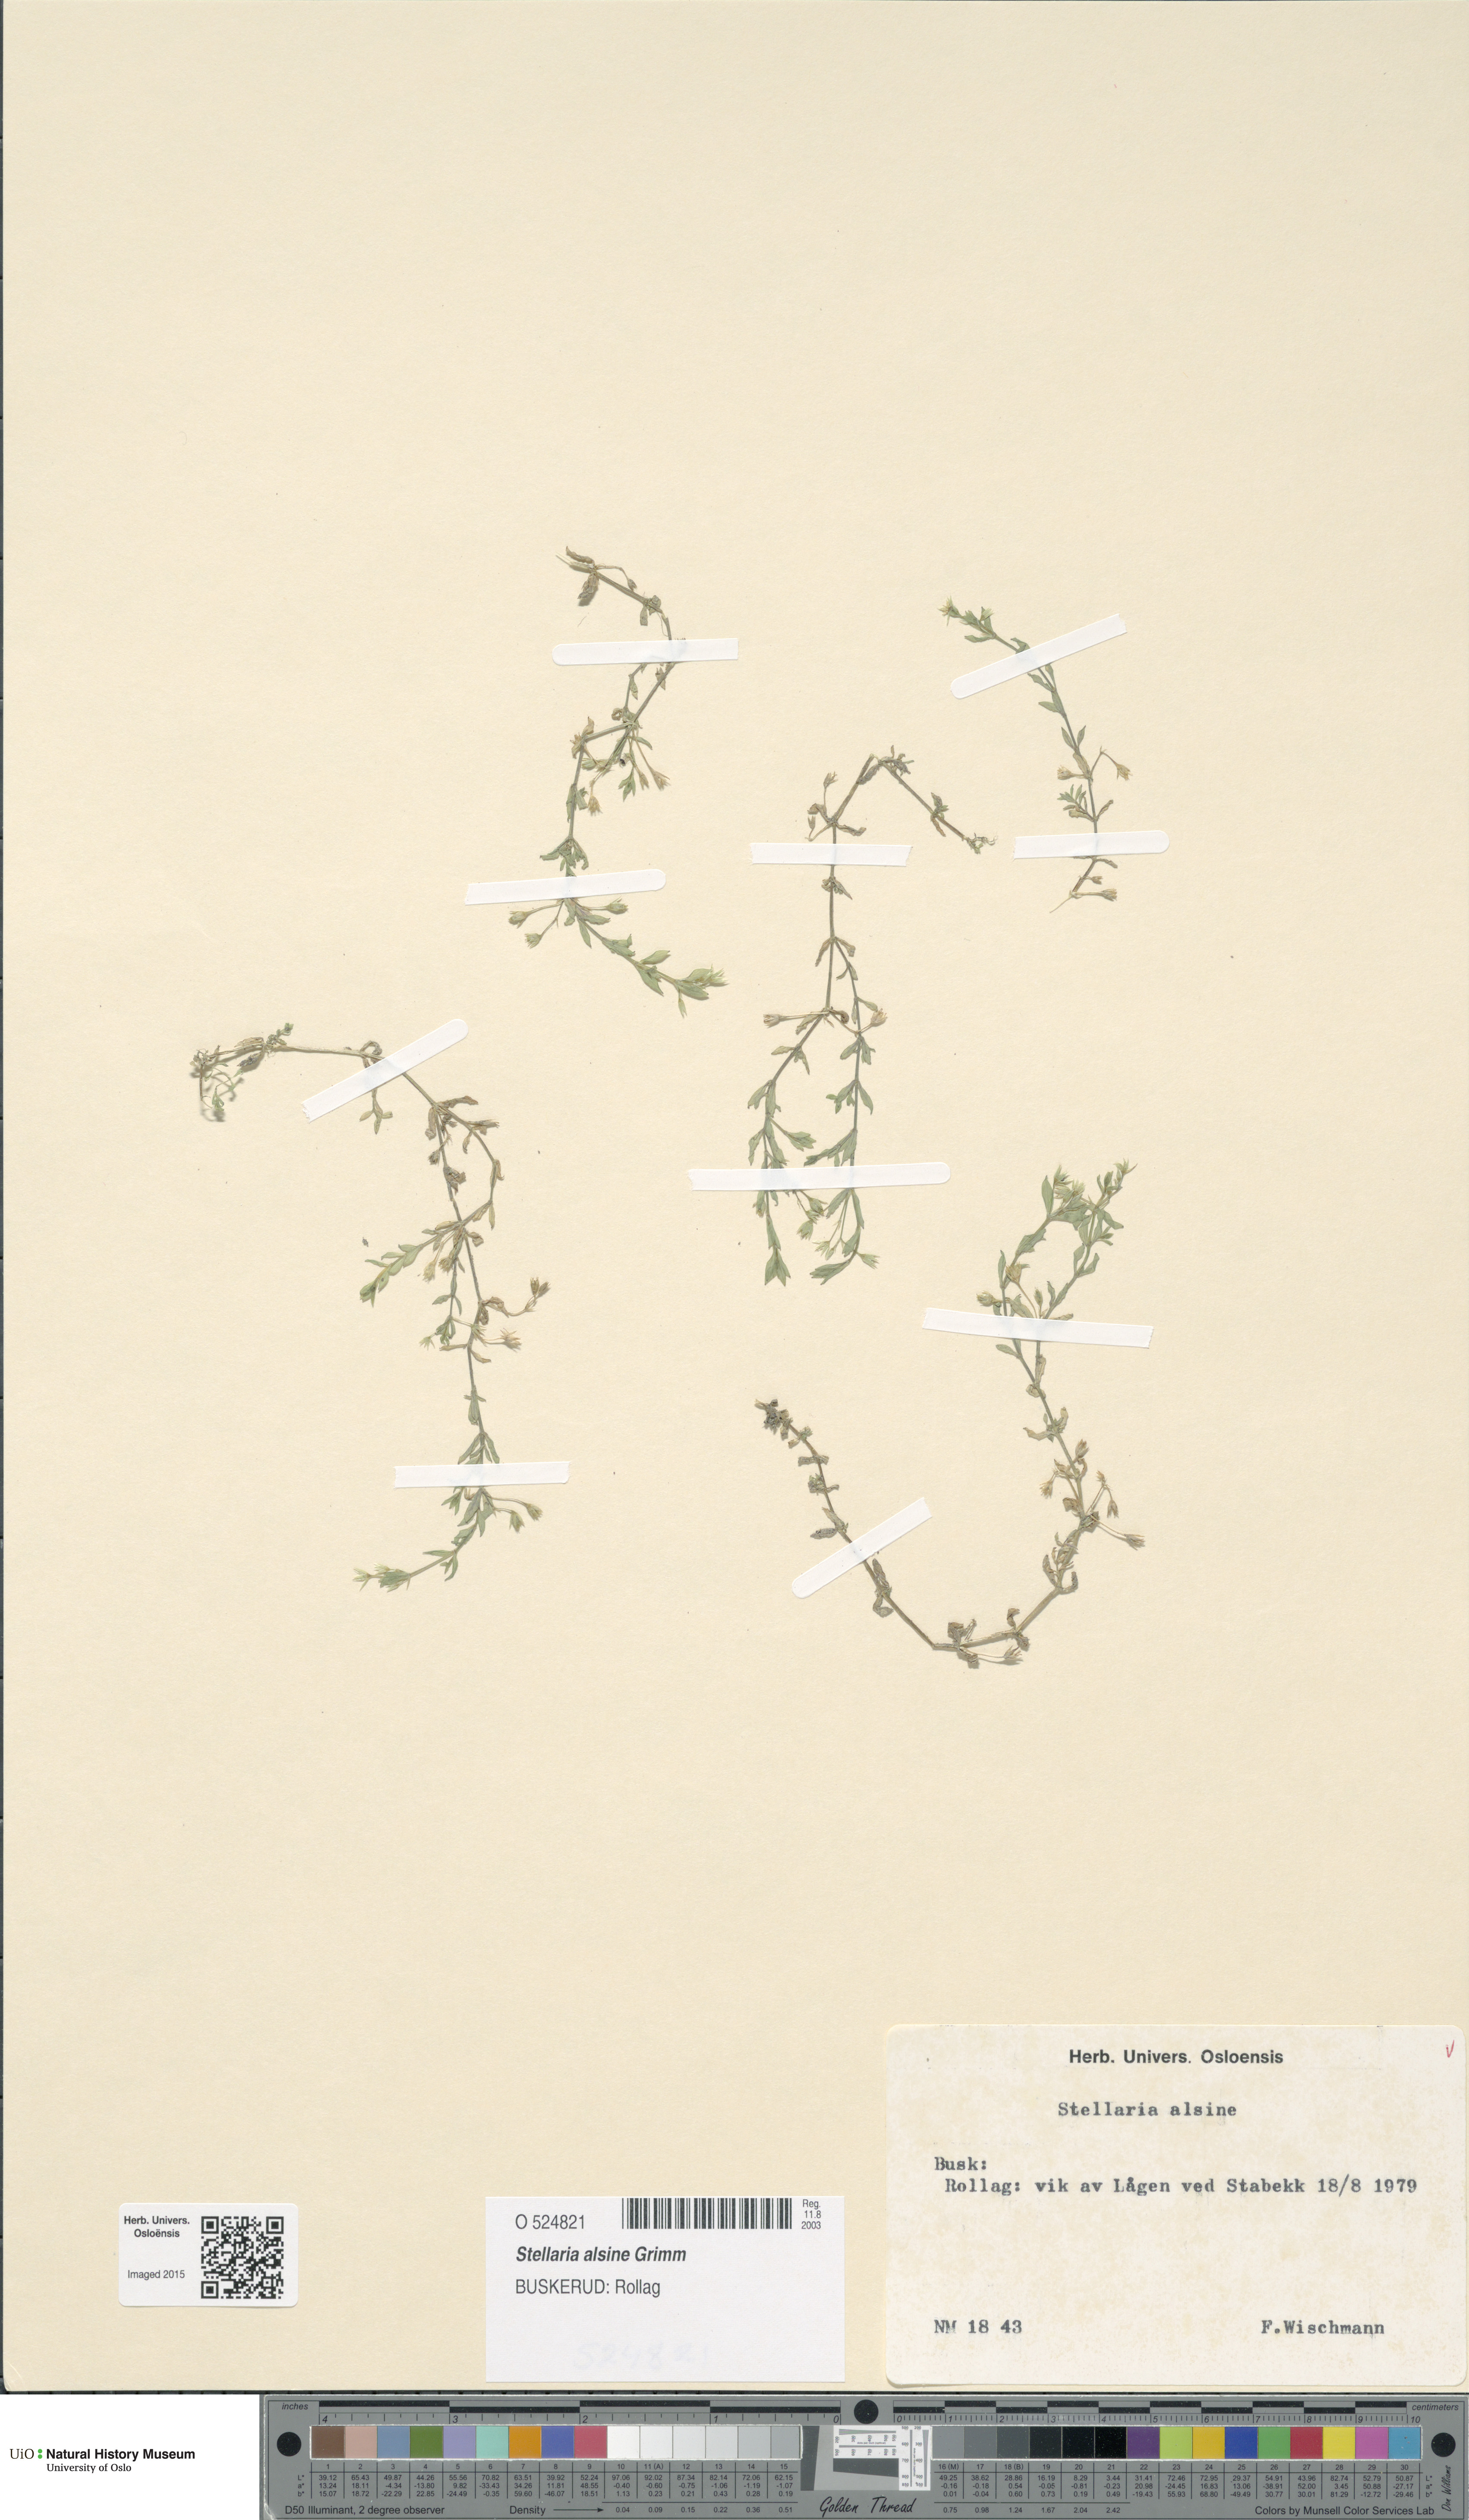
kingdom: Plantae
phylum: Tracheophyta
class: Magnoliopsida
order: Caryophyllales
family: Caryophyllaceae
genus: Stellaria
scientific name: Stellaria alsine
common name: Bog stitchwort
